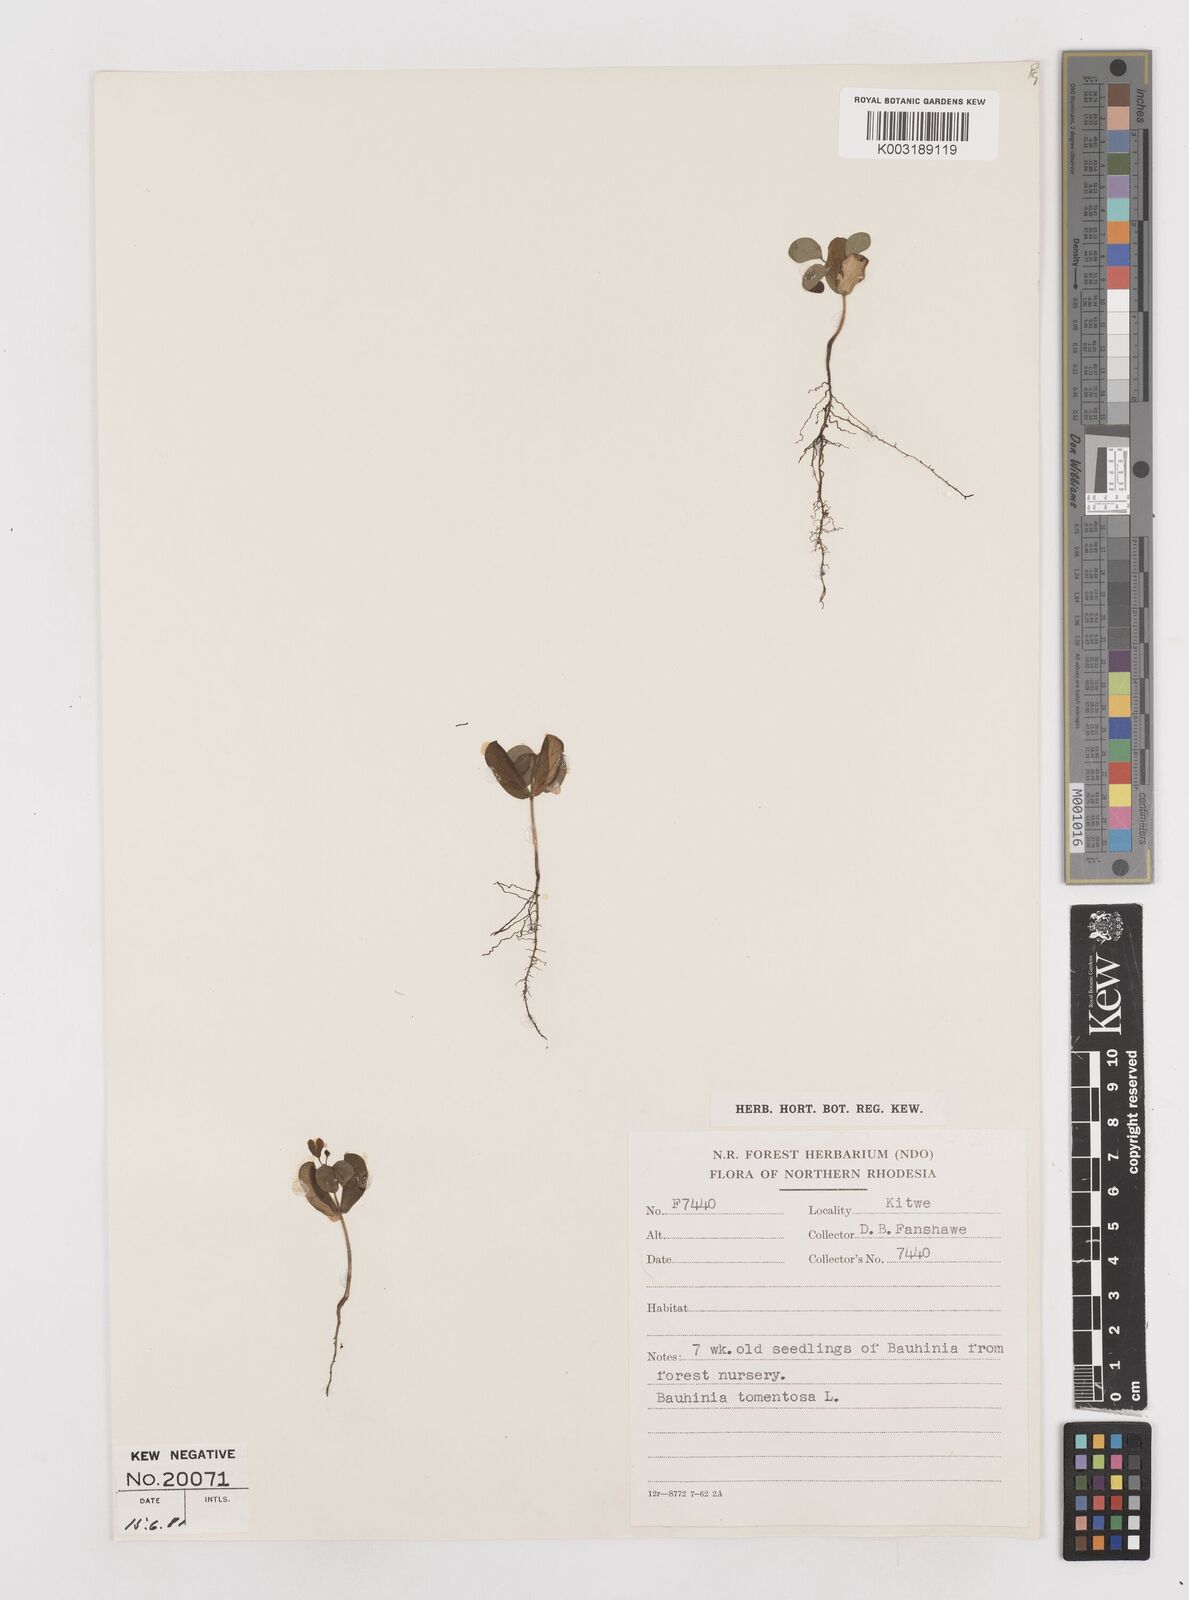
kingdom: Plantae
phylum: Tracheophyta
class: Magnoliopsida
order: Fabales
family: Fabaceae
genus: Bauhinia
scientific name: Bauhinia tomentosa
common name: Bell bauhinia
